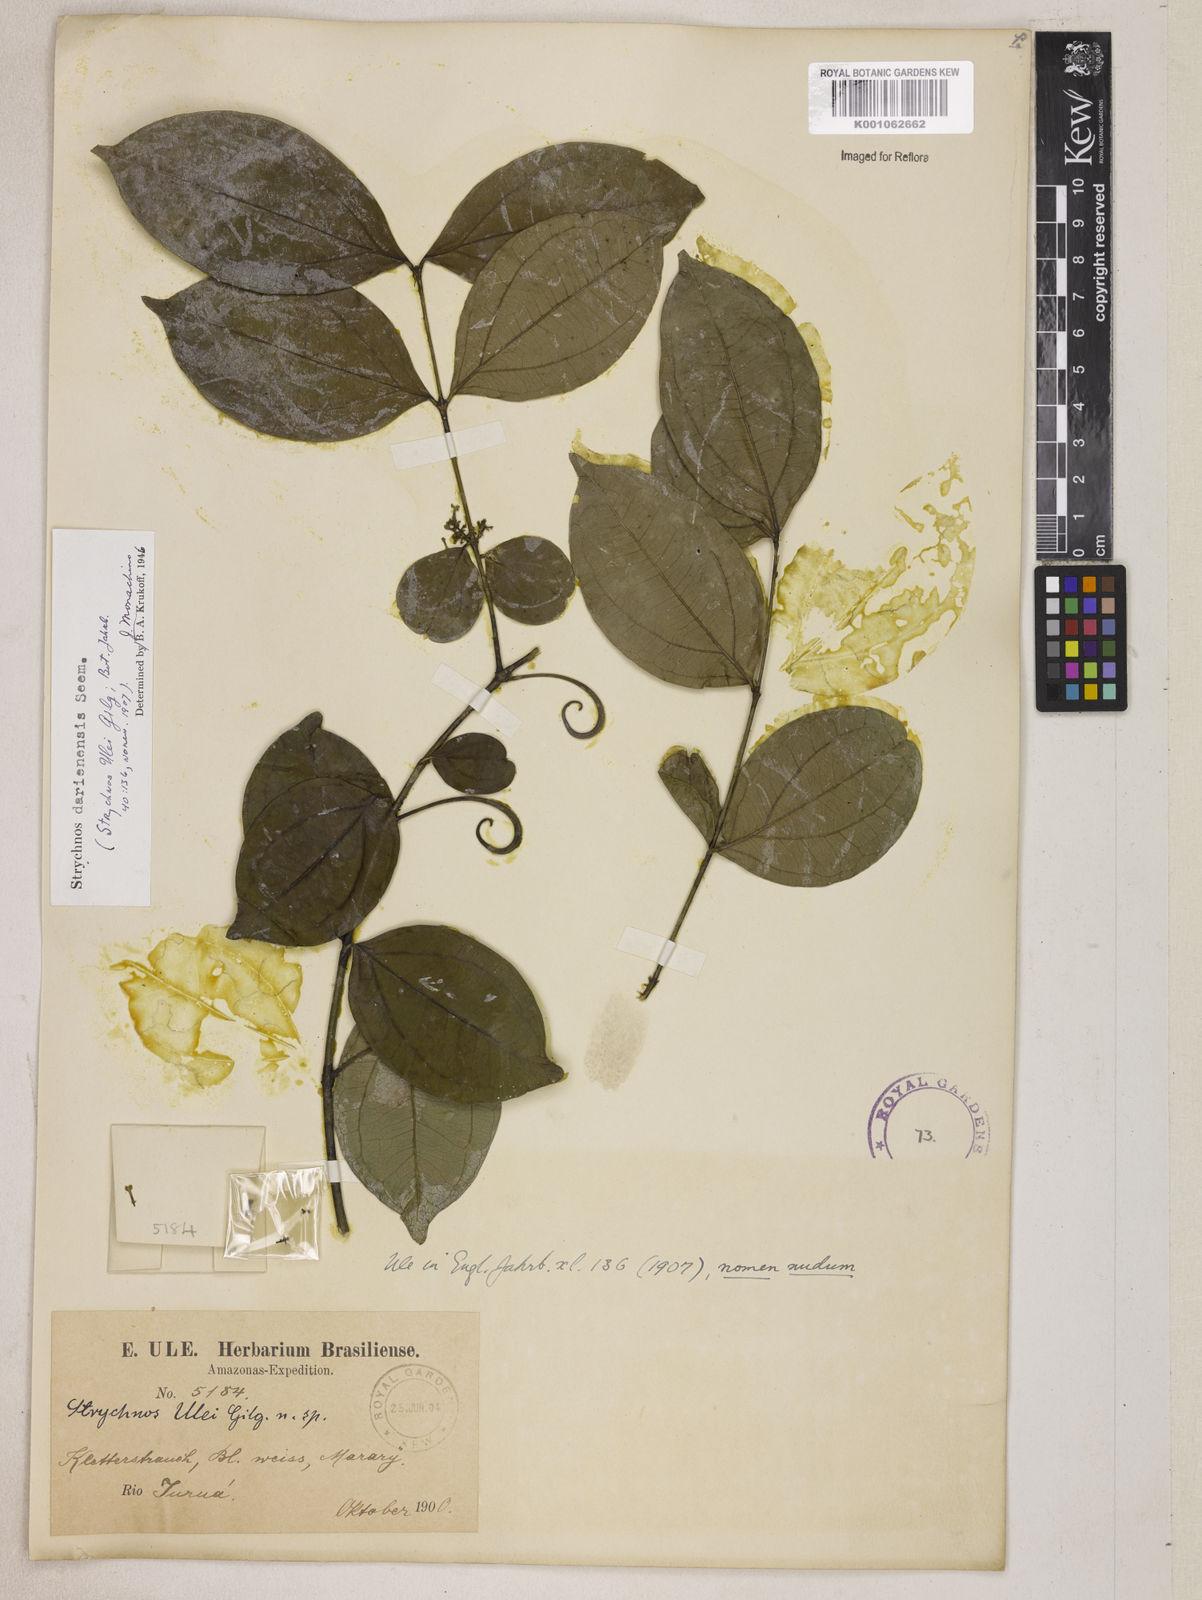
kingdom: Plantae
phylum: Tracheophyta
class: Magnoliopsida
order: Gentianales
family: Loganiaceae
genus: Strychnos
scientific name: Strychnos darienensis
